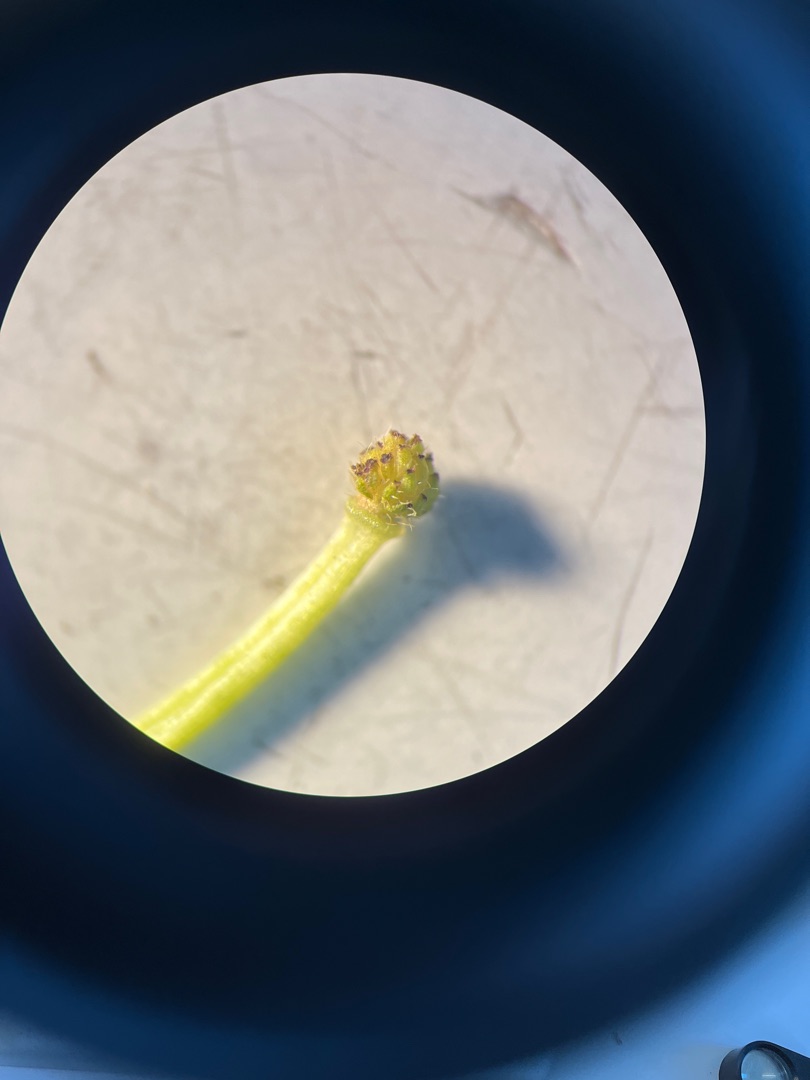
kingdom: Plantae
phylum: Tracheophyta
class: Magnoliopsida
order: Ranunculales
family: Ranunculaceae
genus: Ranunculus
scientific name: Ranunculus aquatilis
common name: Almindelig vandranunkel
